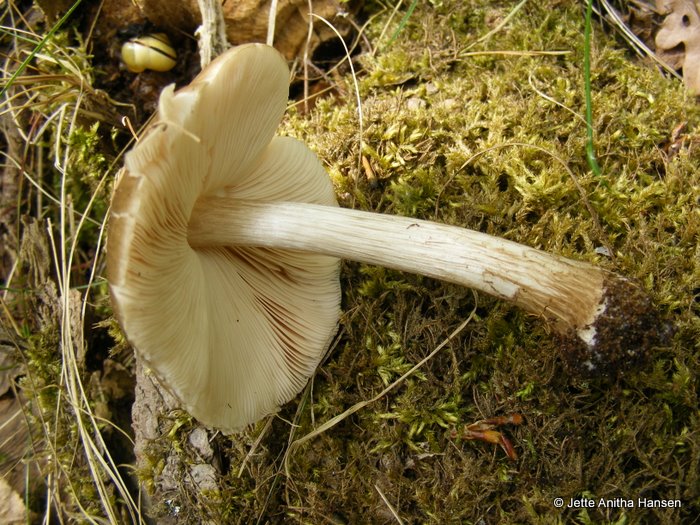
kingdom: Fungi
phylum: Basidiomycota
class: Agaricomycetes
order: Agaricales
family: Pluteaceae
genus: Pluteus
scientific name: Pluteus cervinus
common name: sodfarvet skærmhat
